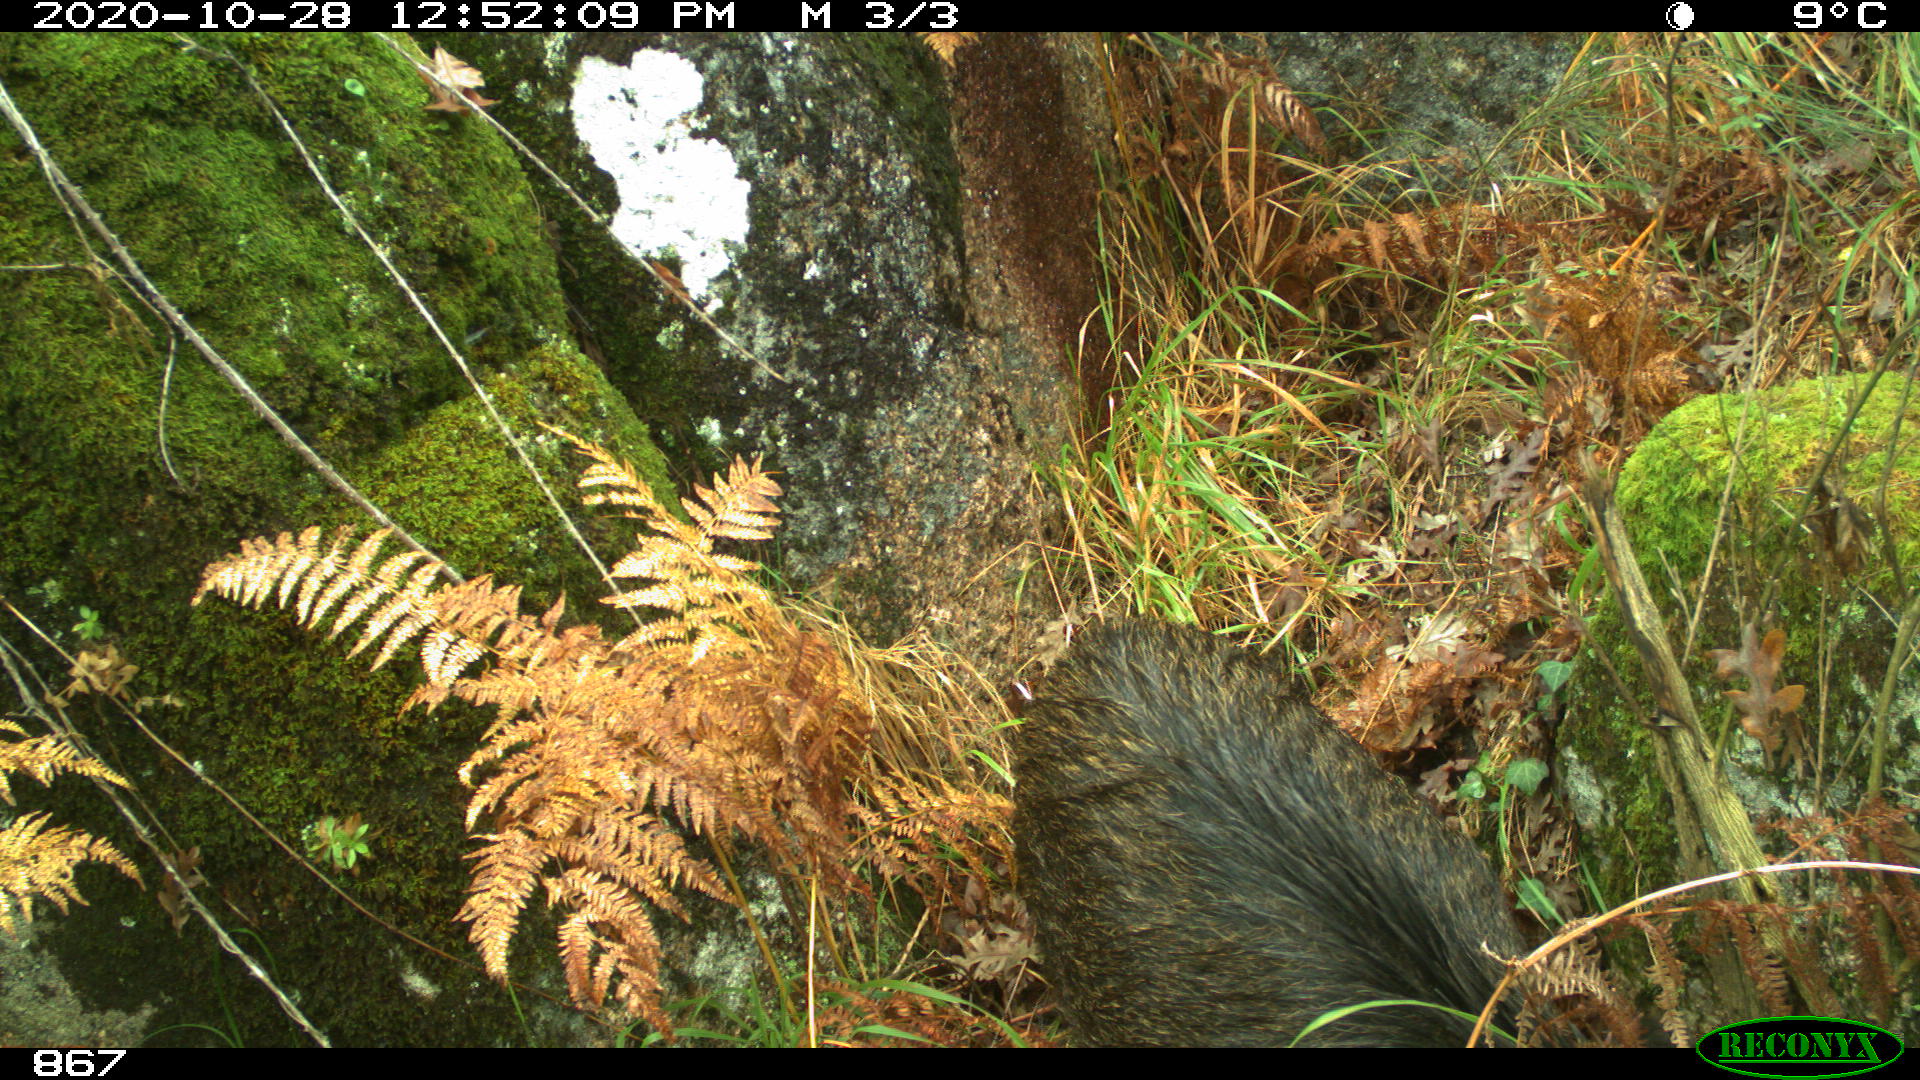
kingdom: Animalia
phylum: Chordata
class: Mammalia
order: Artiodactyla
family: Suidae
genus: Sus
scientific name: Sus scrofa
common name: Wild boar
